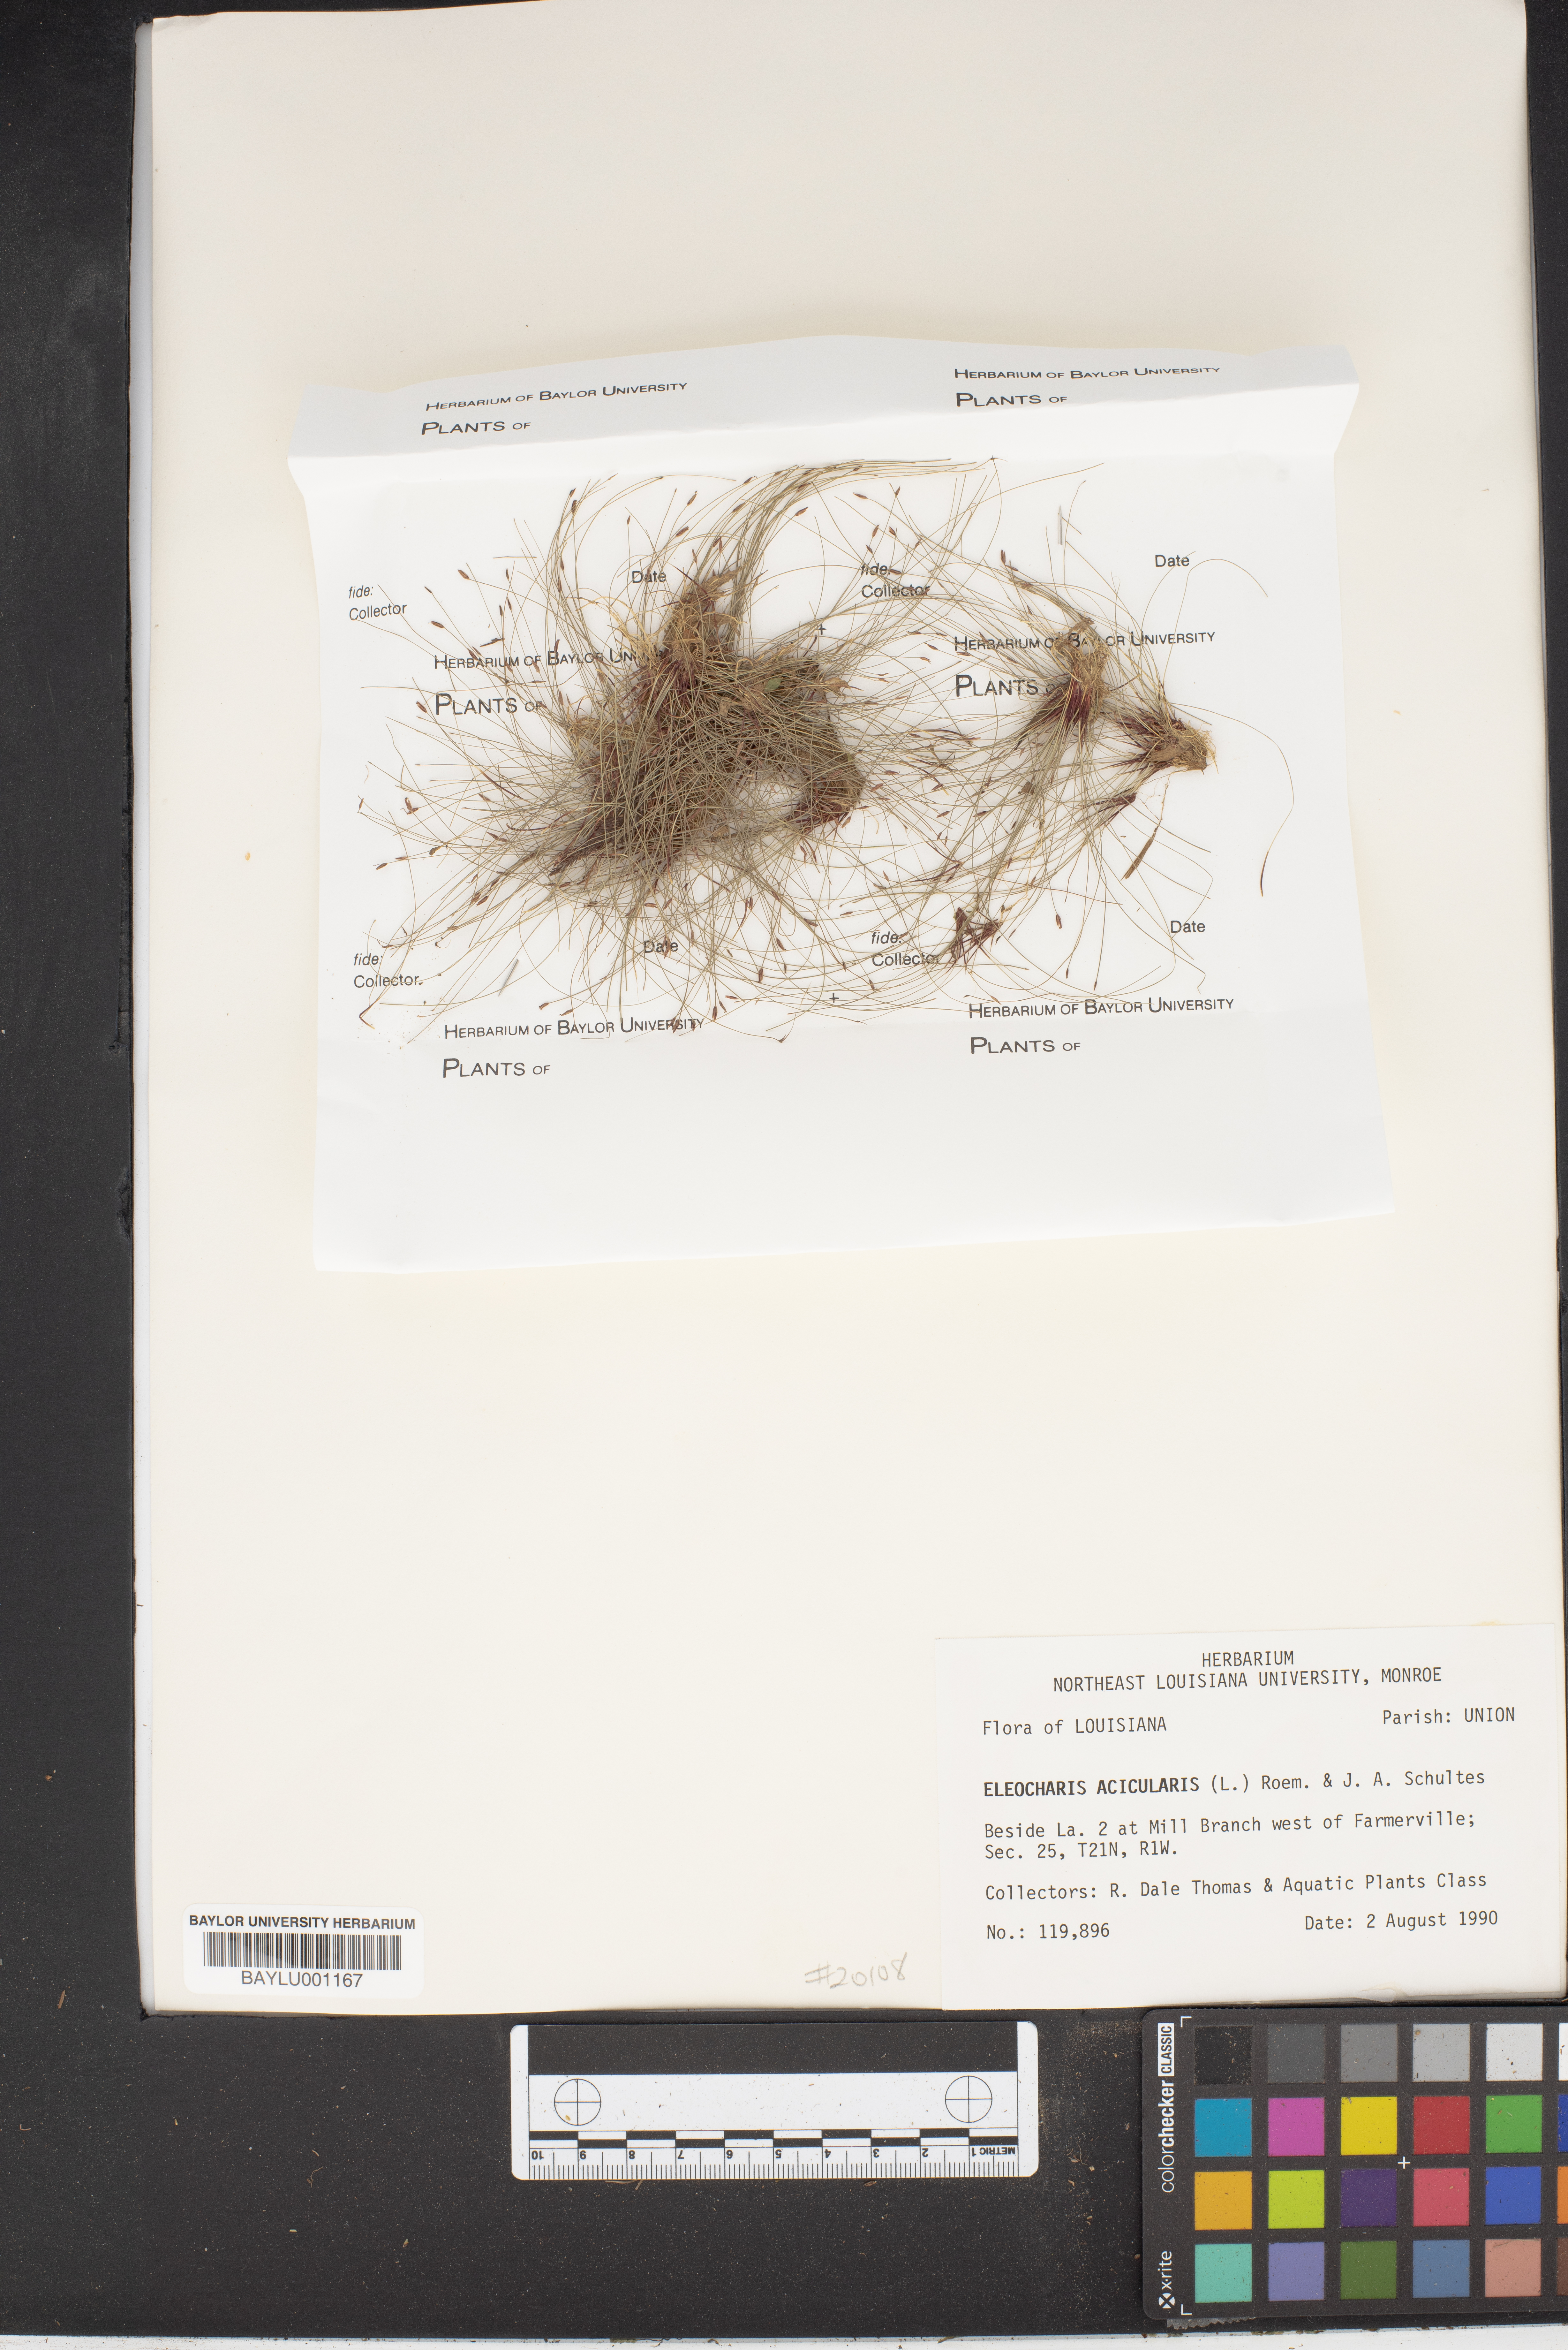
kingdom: Plantae
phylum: Tracheophyta
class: Liliopsida
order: Poales
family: Cyperaceae
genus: Eleocharis
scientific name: Eleocharis acicularis
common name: Needle spike-rush
